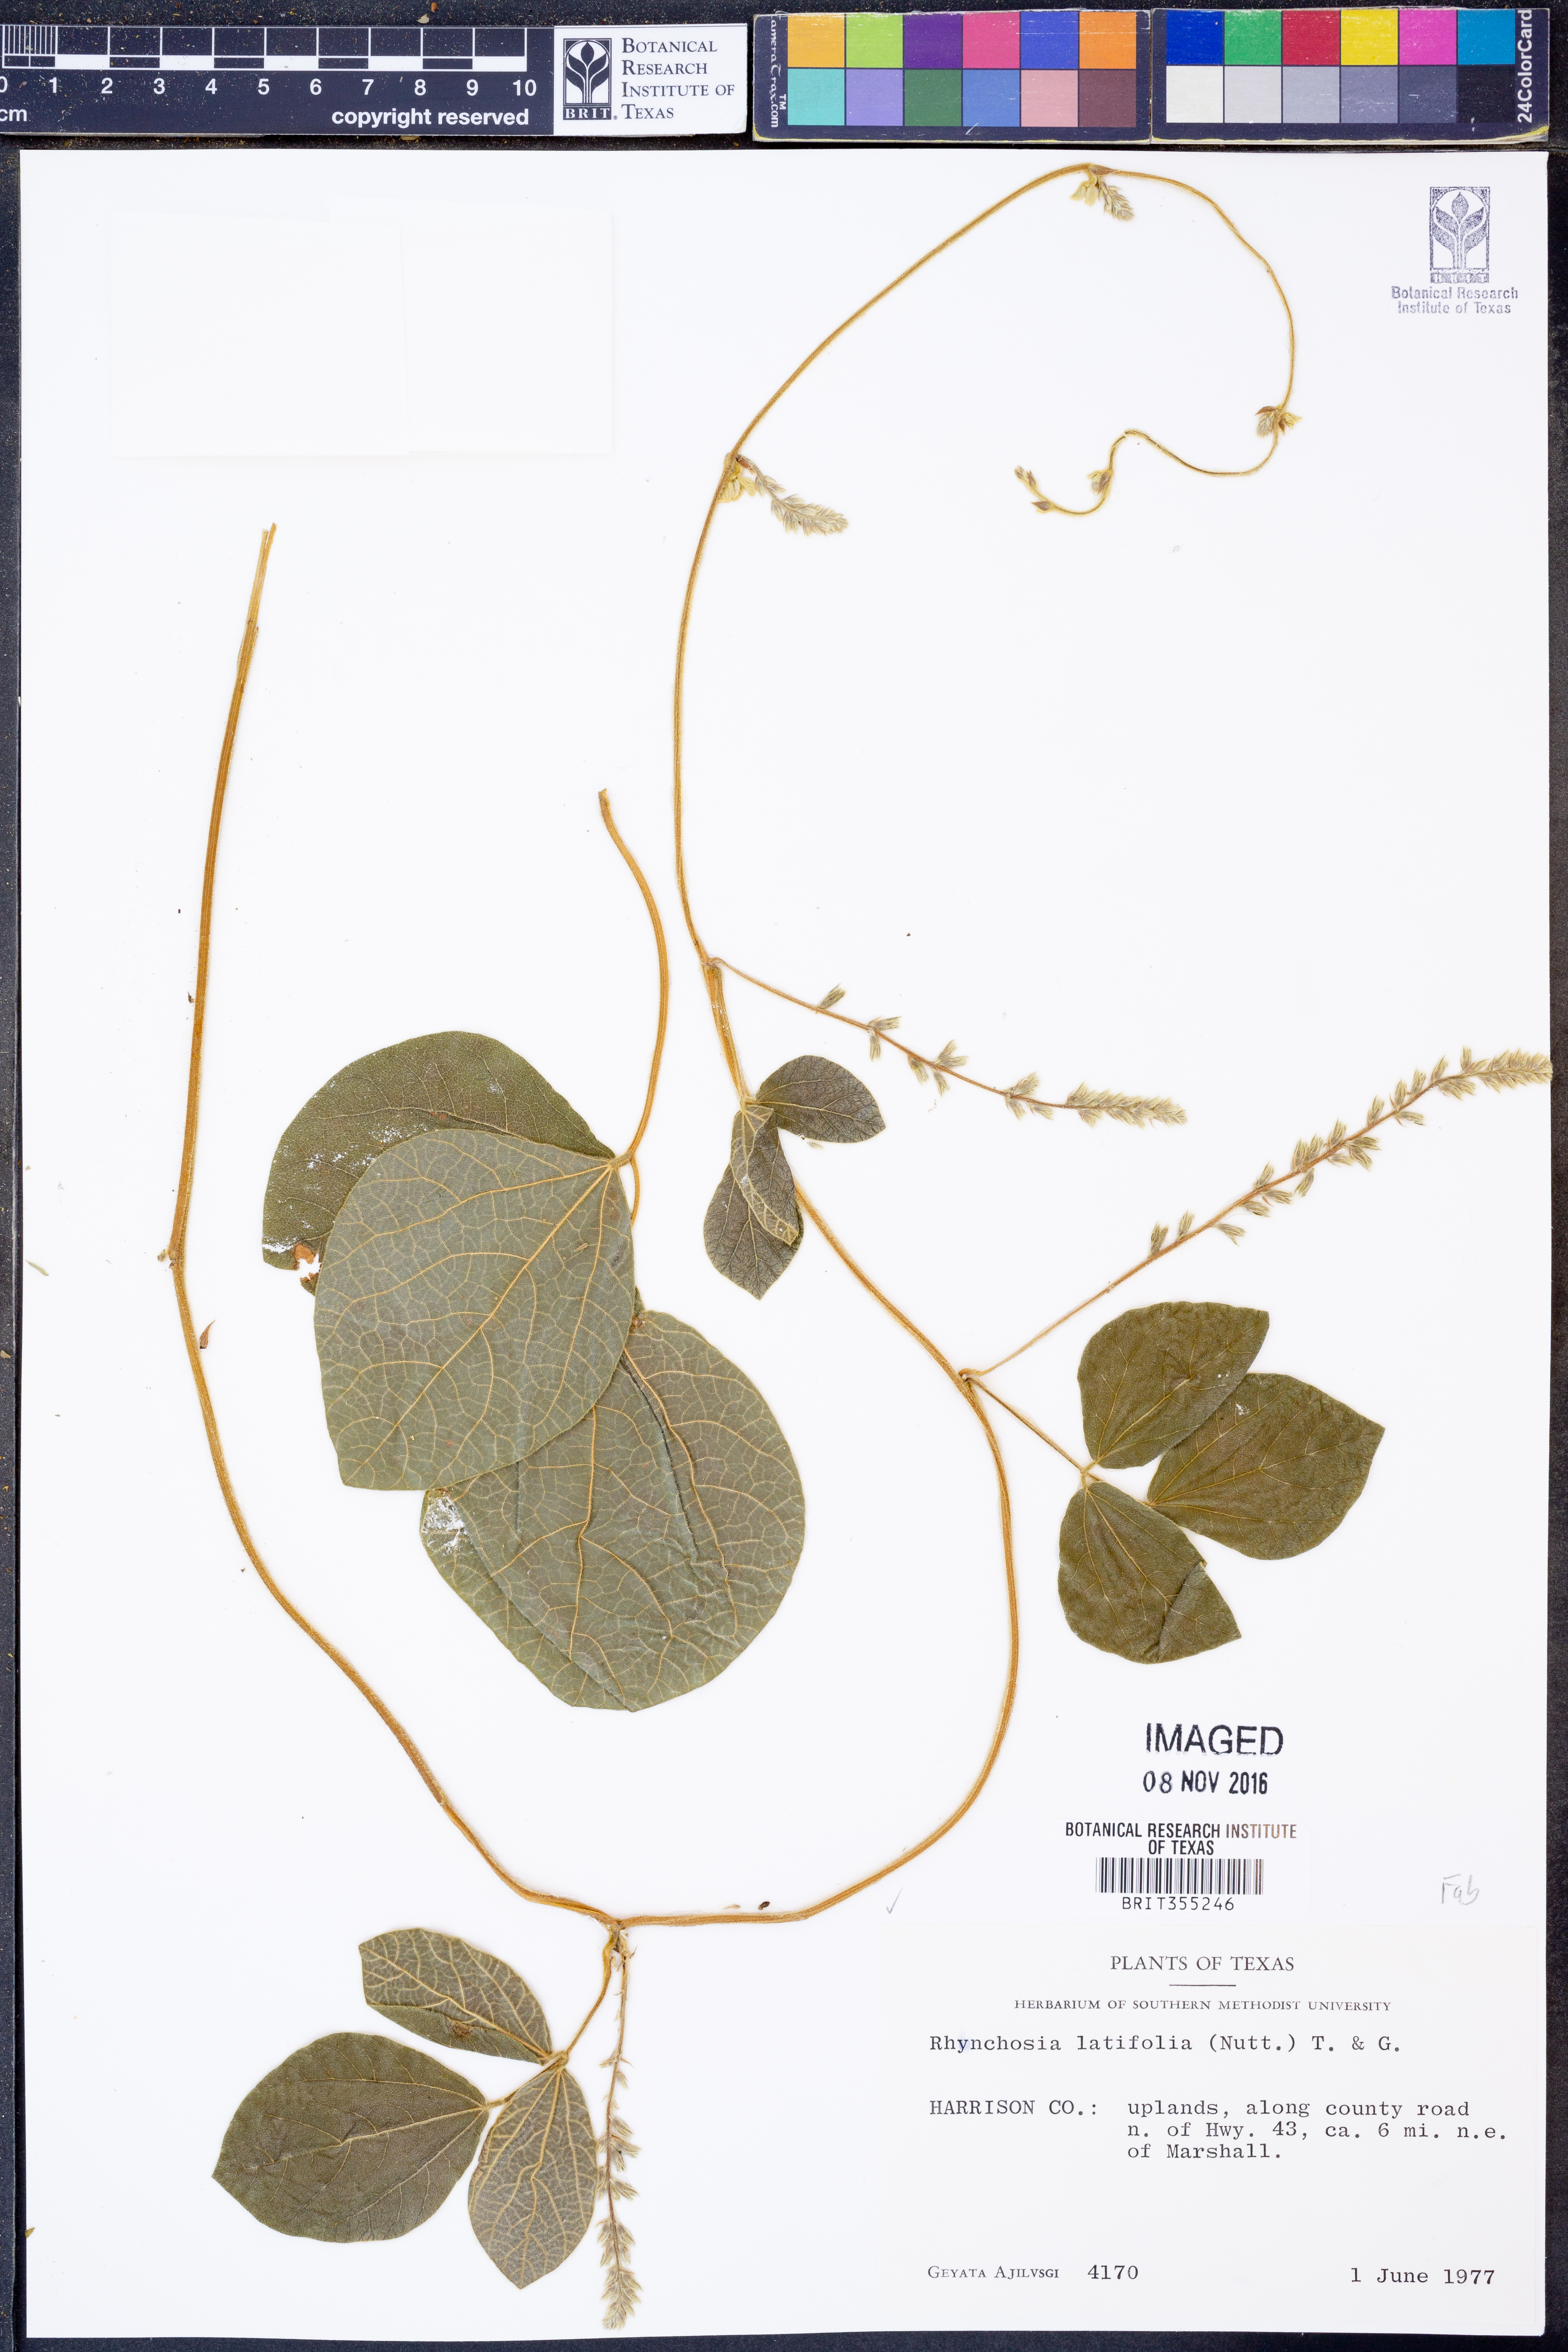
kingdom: Plantae
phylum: Tracheophyta
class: Magnoliopsida
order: Fabales
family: Fabaceae
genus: Rhynchosia
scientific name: Rhynchosia latifolia
